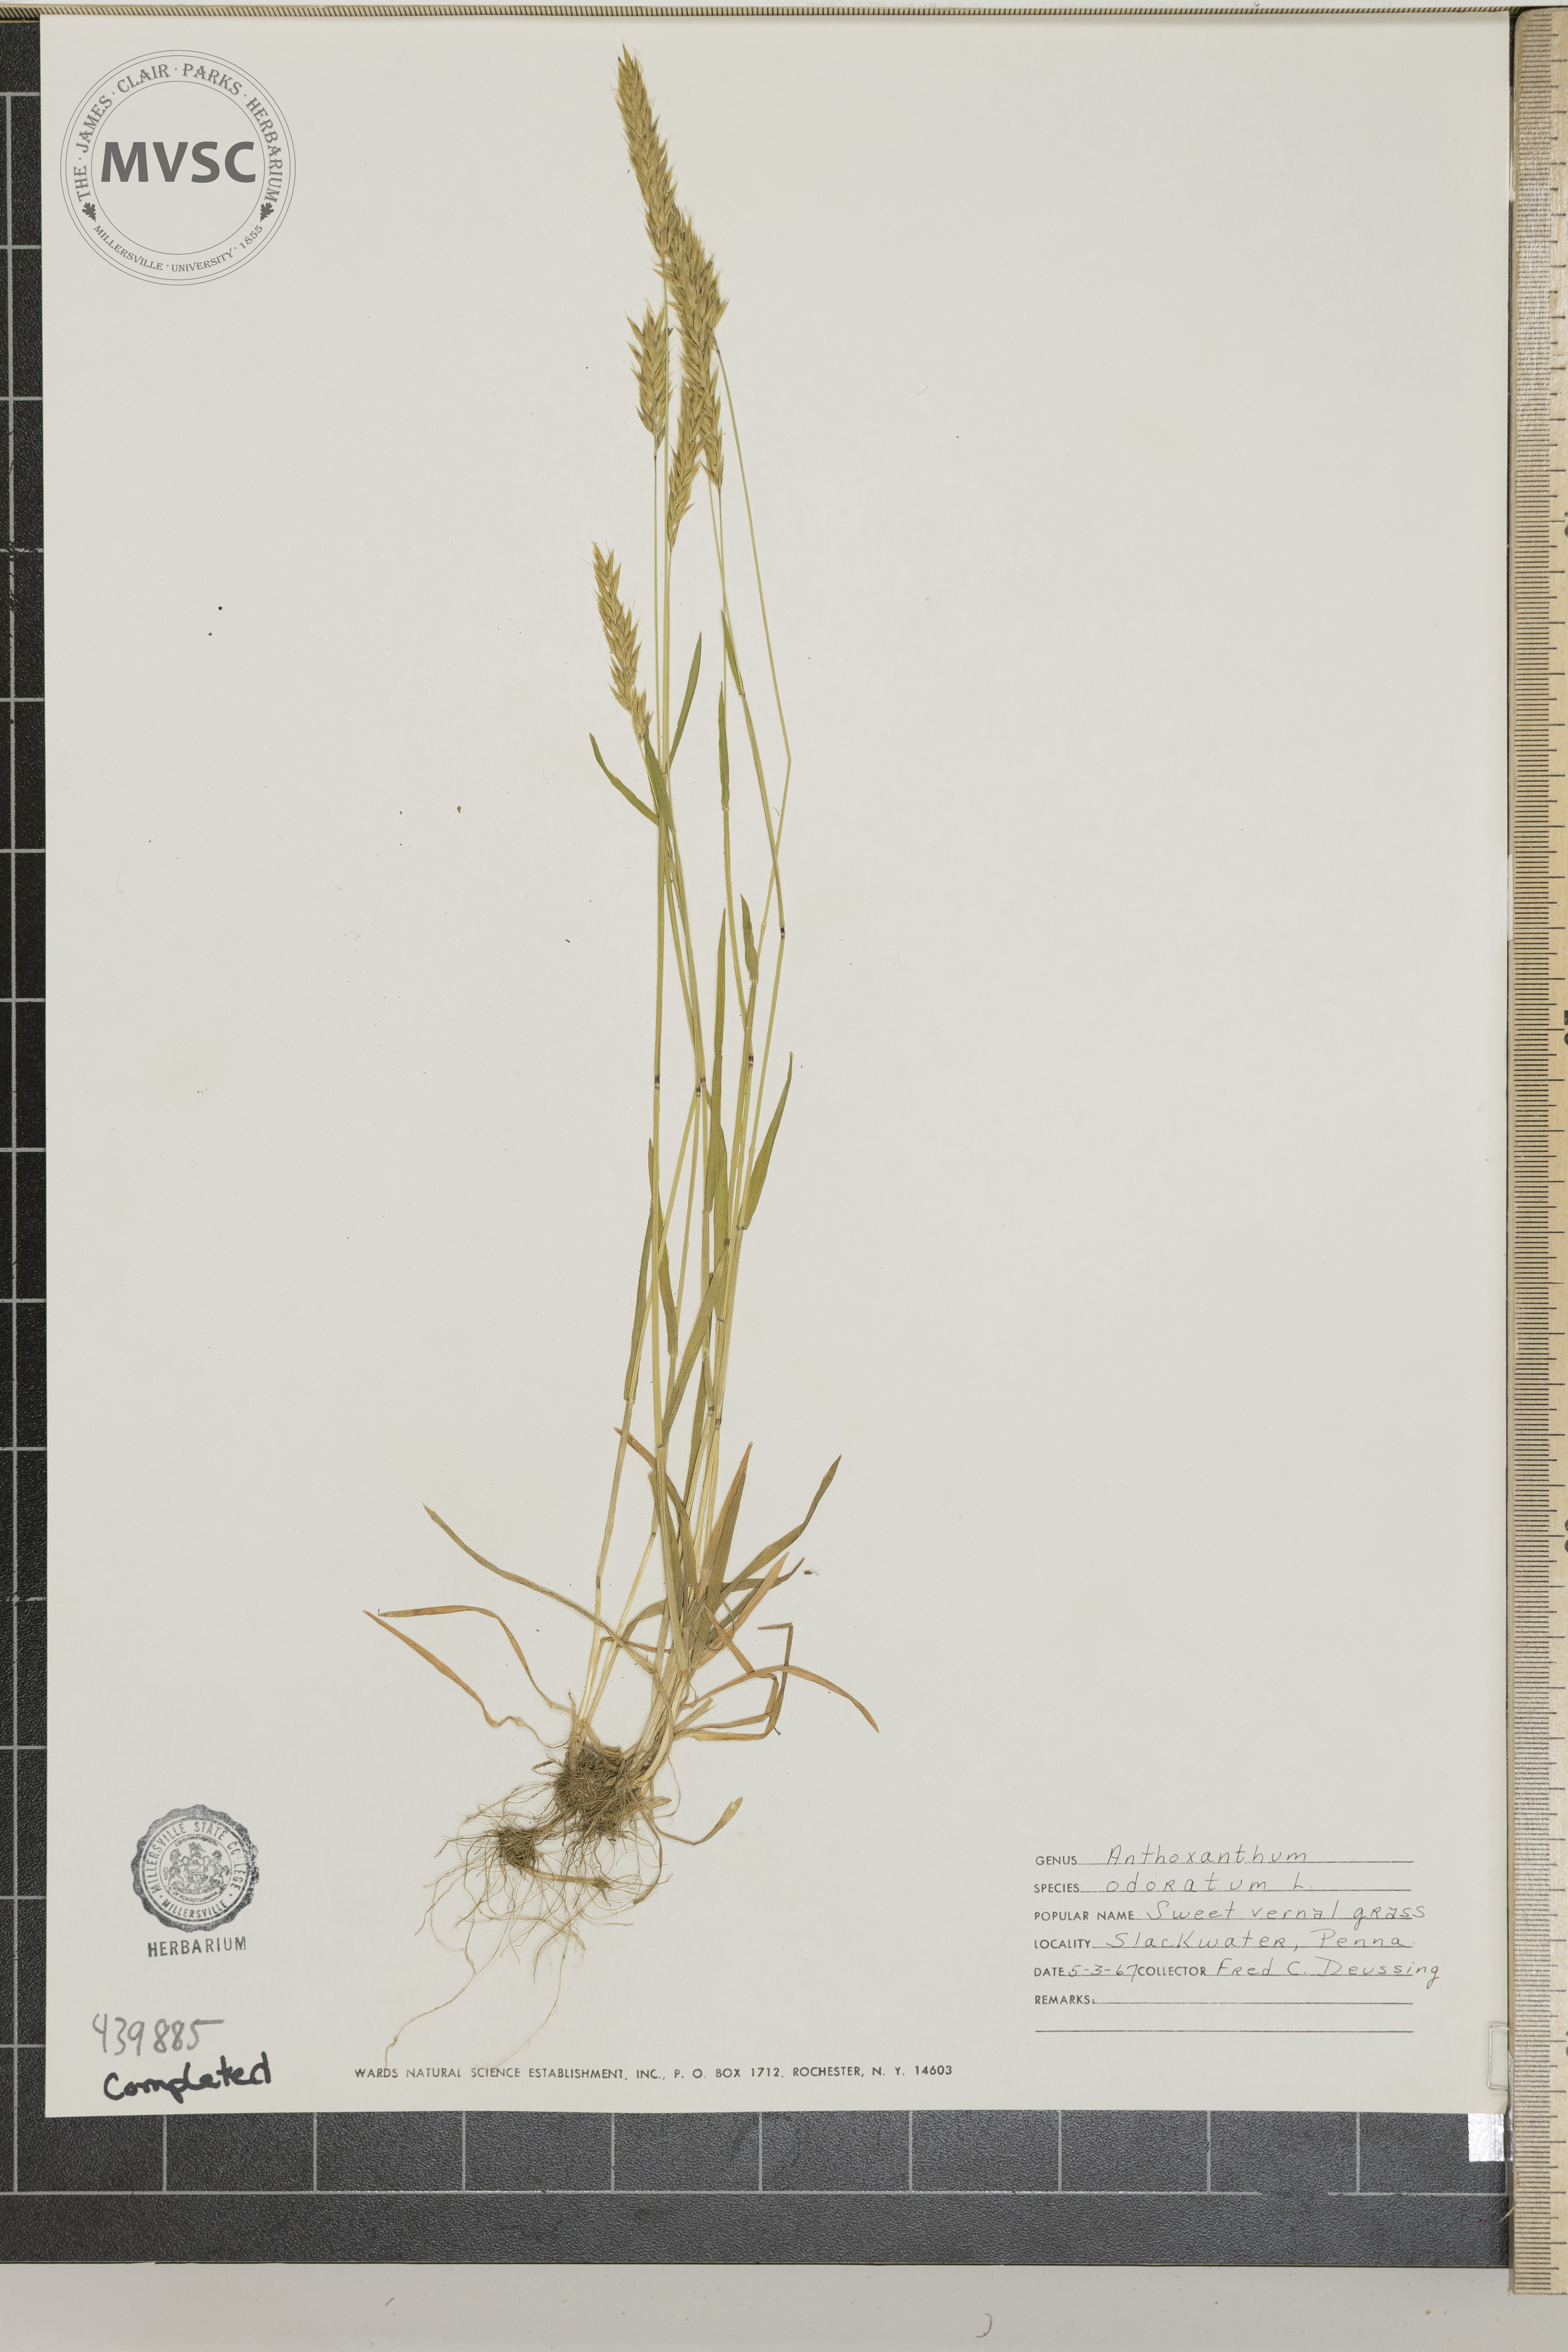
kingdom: Plantae
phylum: Tracheophyta
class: Liliopsida
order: Poales
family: Poaceae
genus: Anthoxanthum
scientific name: Anthoxanthum odoratum
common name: Sweet vernalgrass
